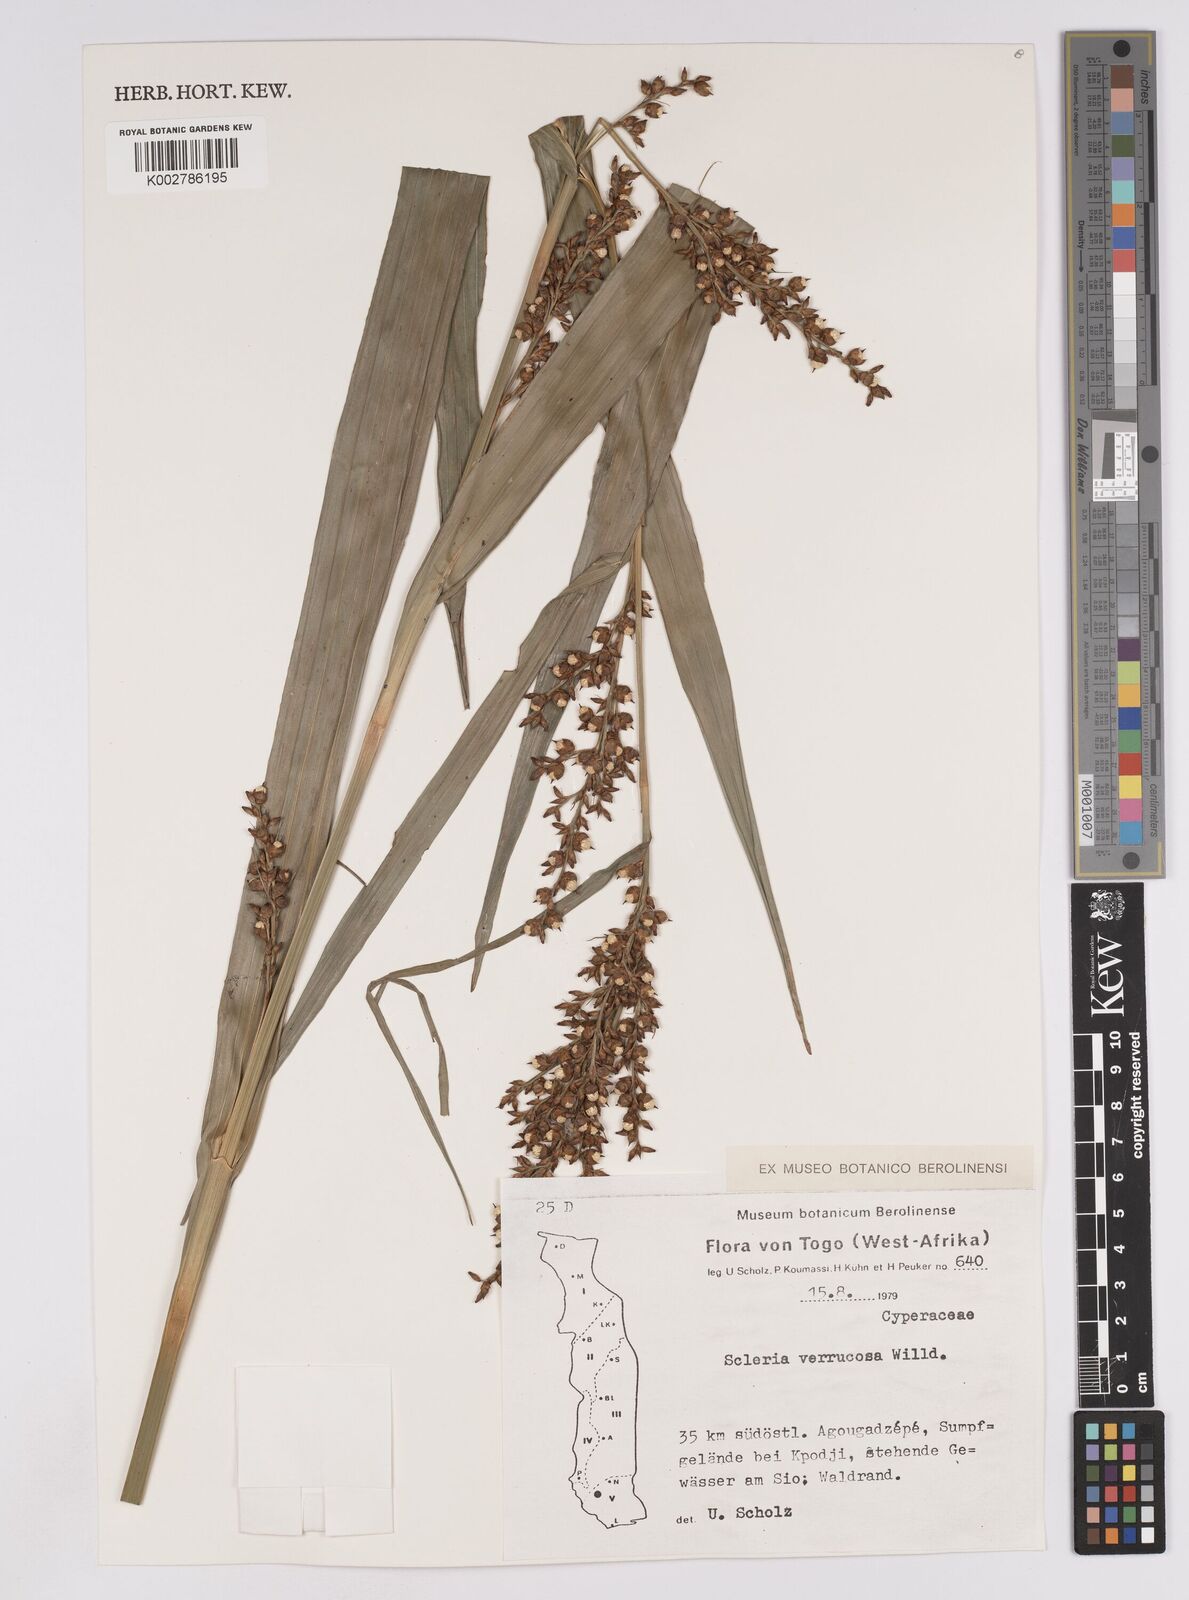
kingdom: Plantae
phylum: Tracheophyta
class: Liliopsida
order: Poales
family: Cyperaceae
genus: Scleria
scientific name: Scleria verrucosa
